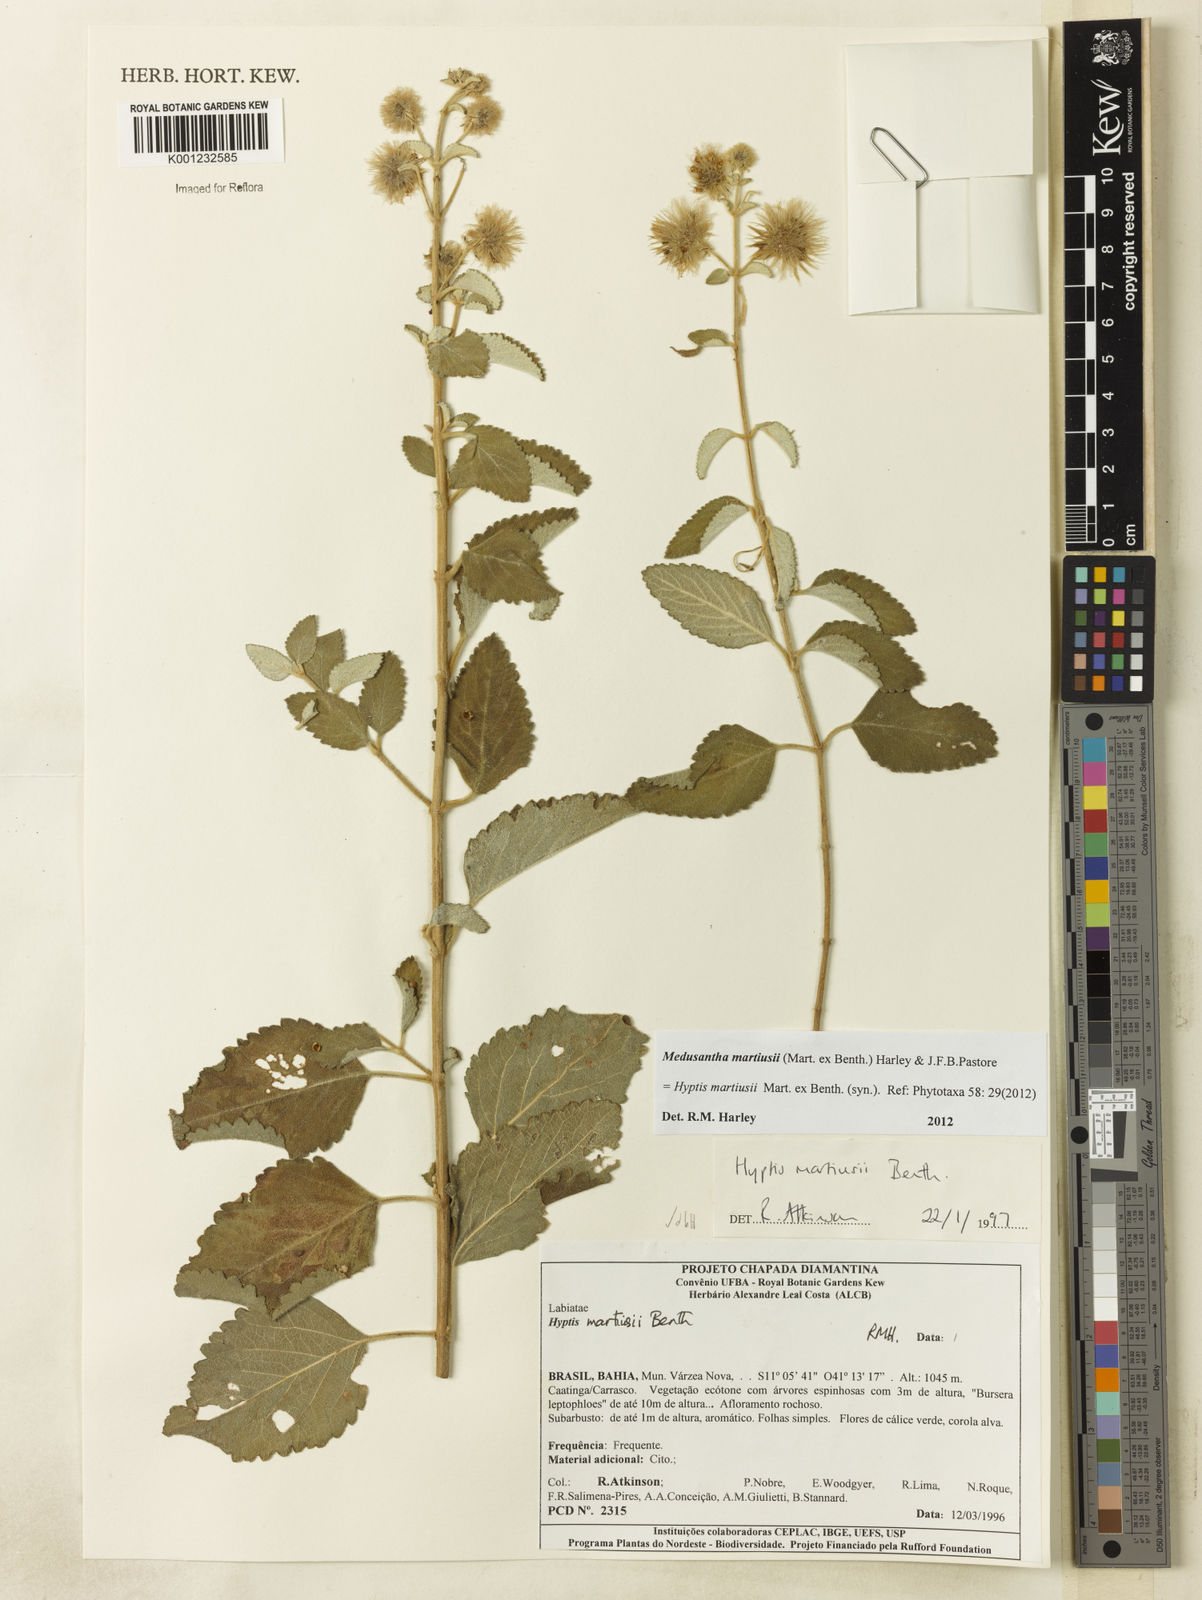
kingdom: Plantae
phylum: Tracheophyta
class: Magnoliopsida
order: Lamiales
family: Lamiaceae
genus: Medusantha
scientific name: Medusantha martiusii
